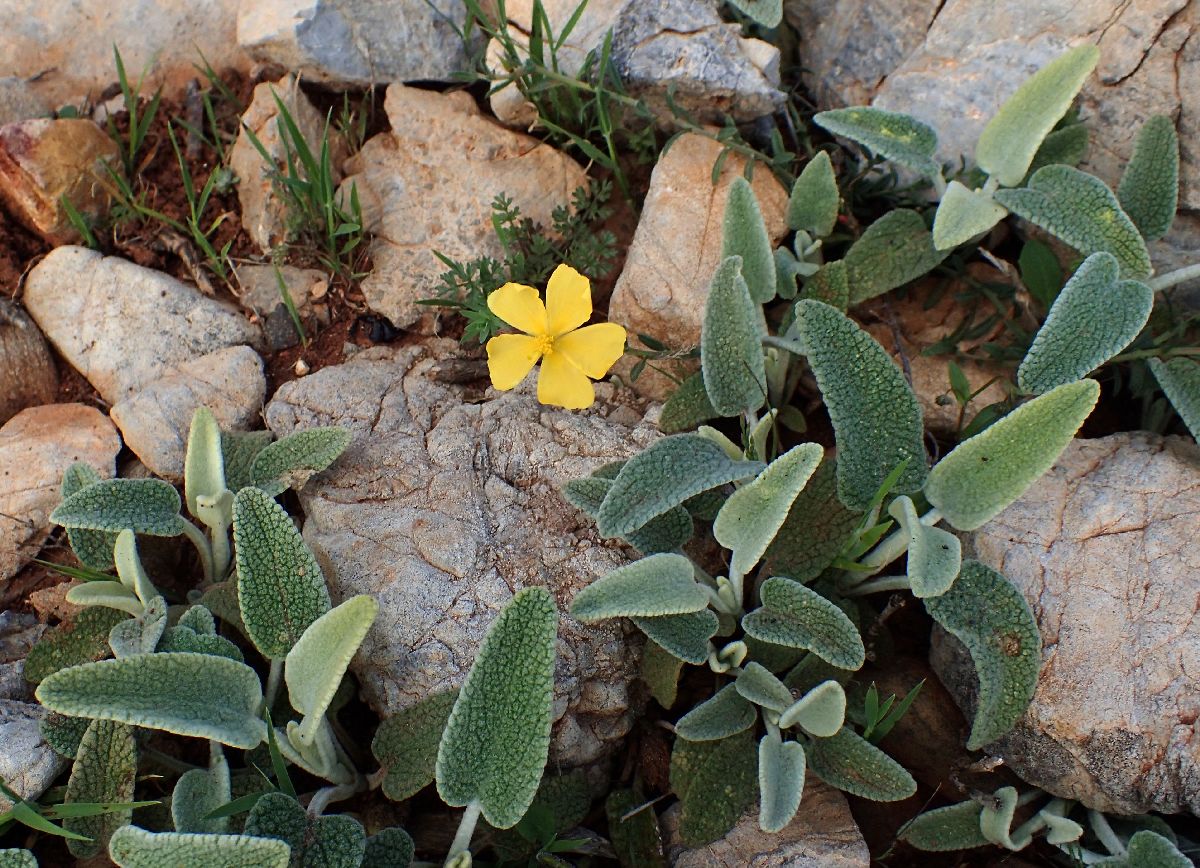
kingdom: Plantae
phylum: Tracheophyta
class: Magnoliopsida
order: Malvales
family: Cistaceae
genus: Fumana
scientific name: Fumana arabica
